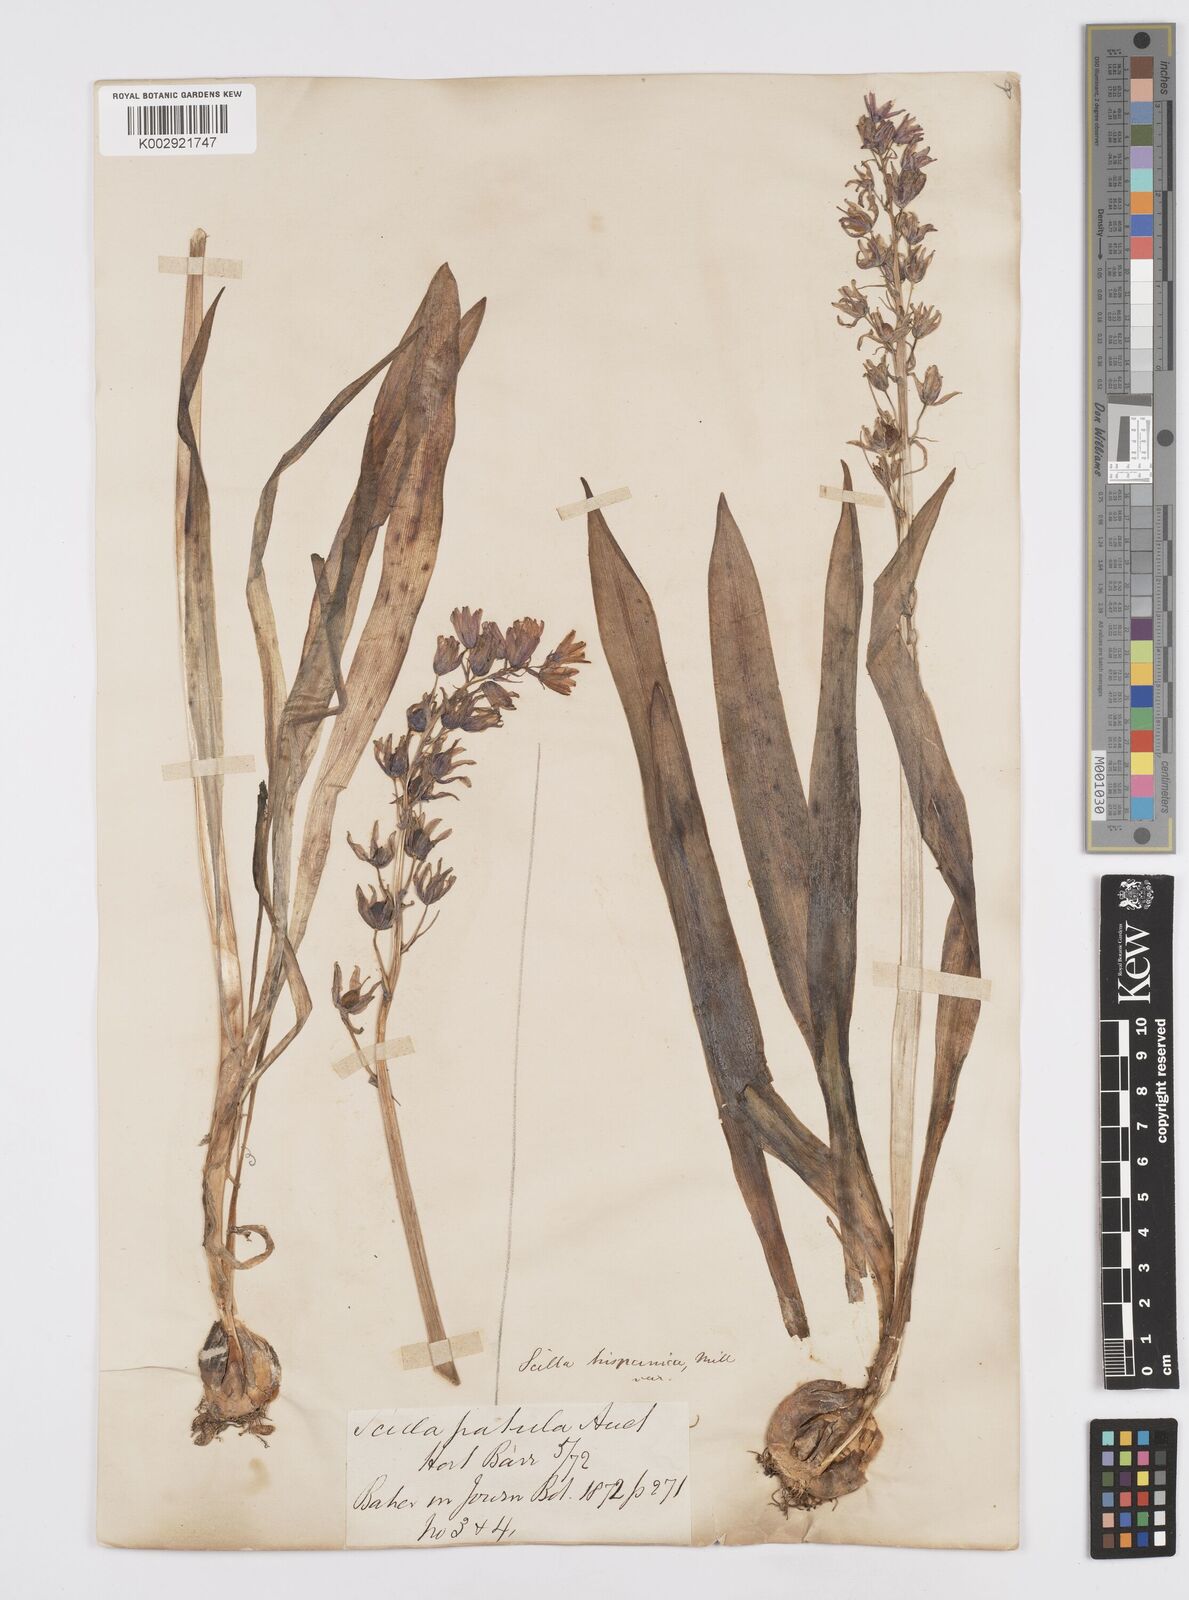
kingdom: Plantae
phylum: Tracheophyta
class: Liliopsida
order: Asparagales
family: Asparagaceae
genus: Hyacinthoides
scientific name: Hyacinthoides hispanica
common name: Spanish bluebell
